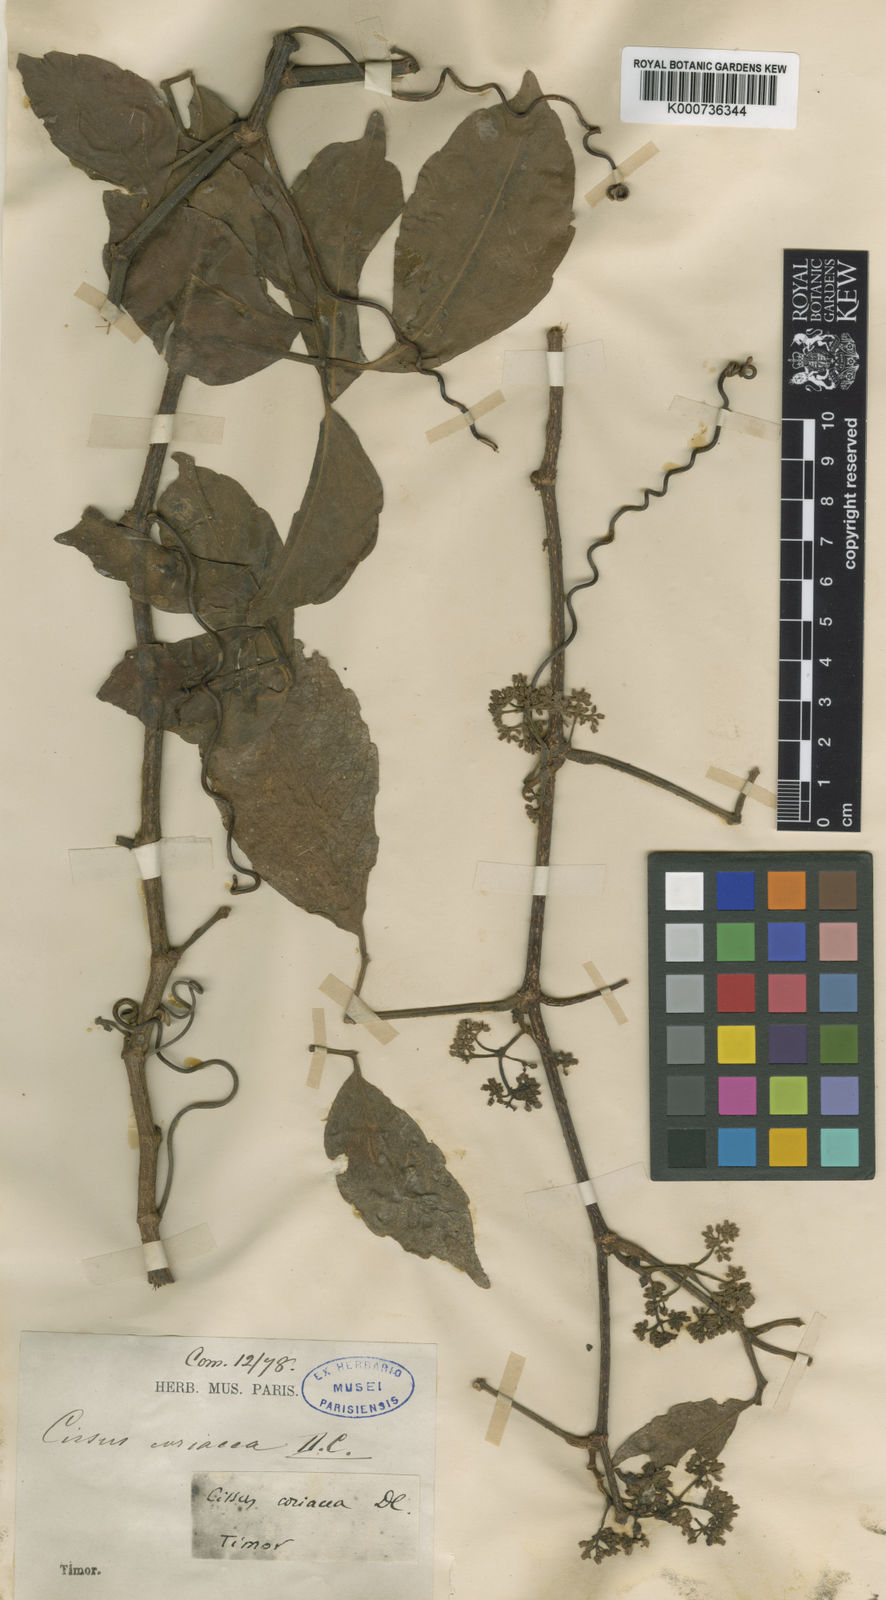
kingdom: Plantae
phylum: Tracheophyta
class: Magnoliopsida
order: Vitales
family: Vitaceae
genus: Tetrastigma
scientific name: Tetrastigma
